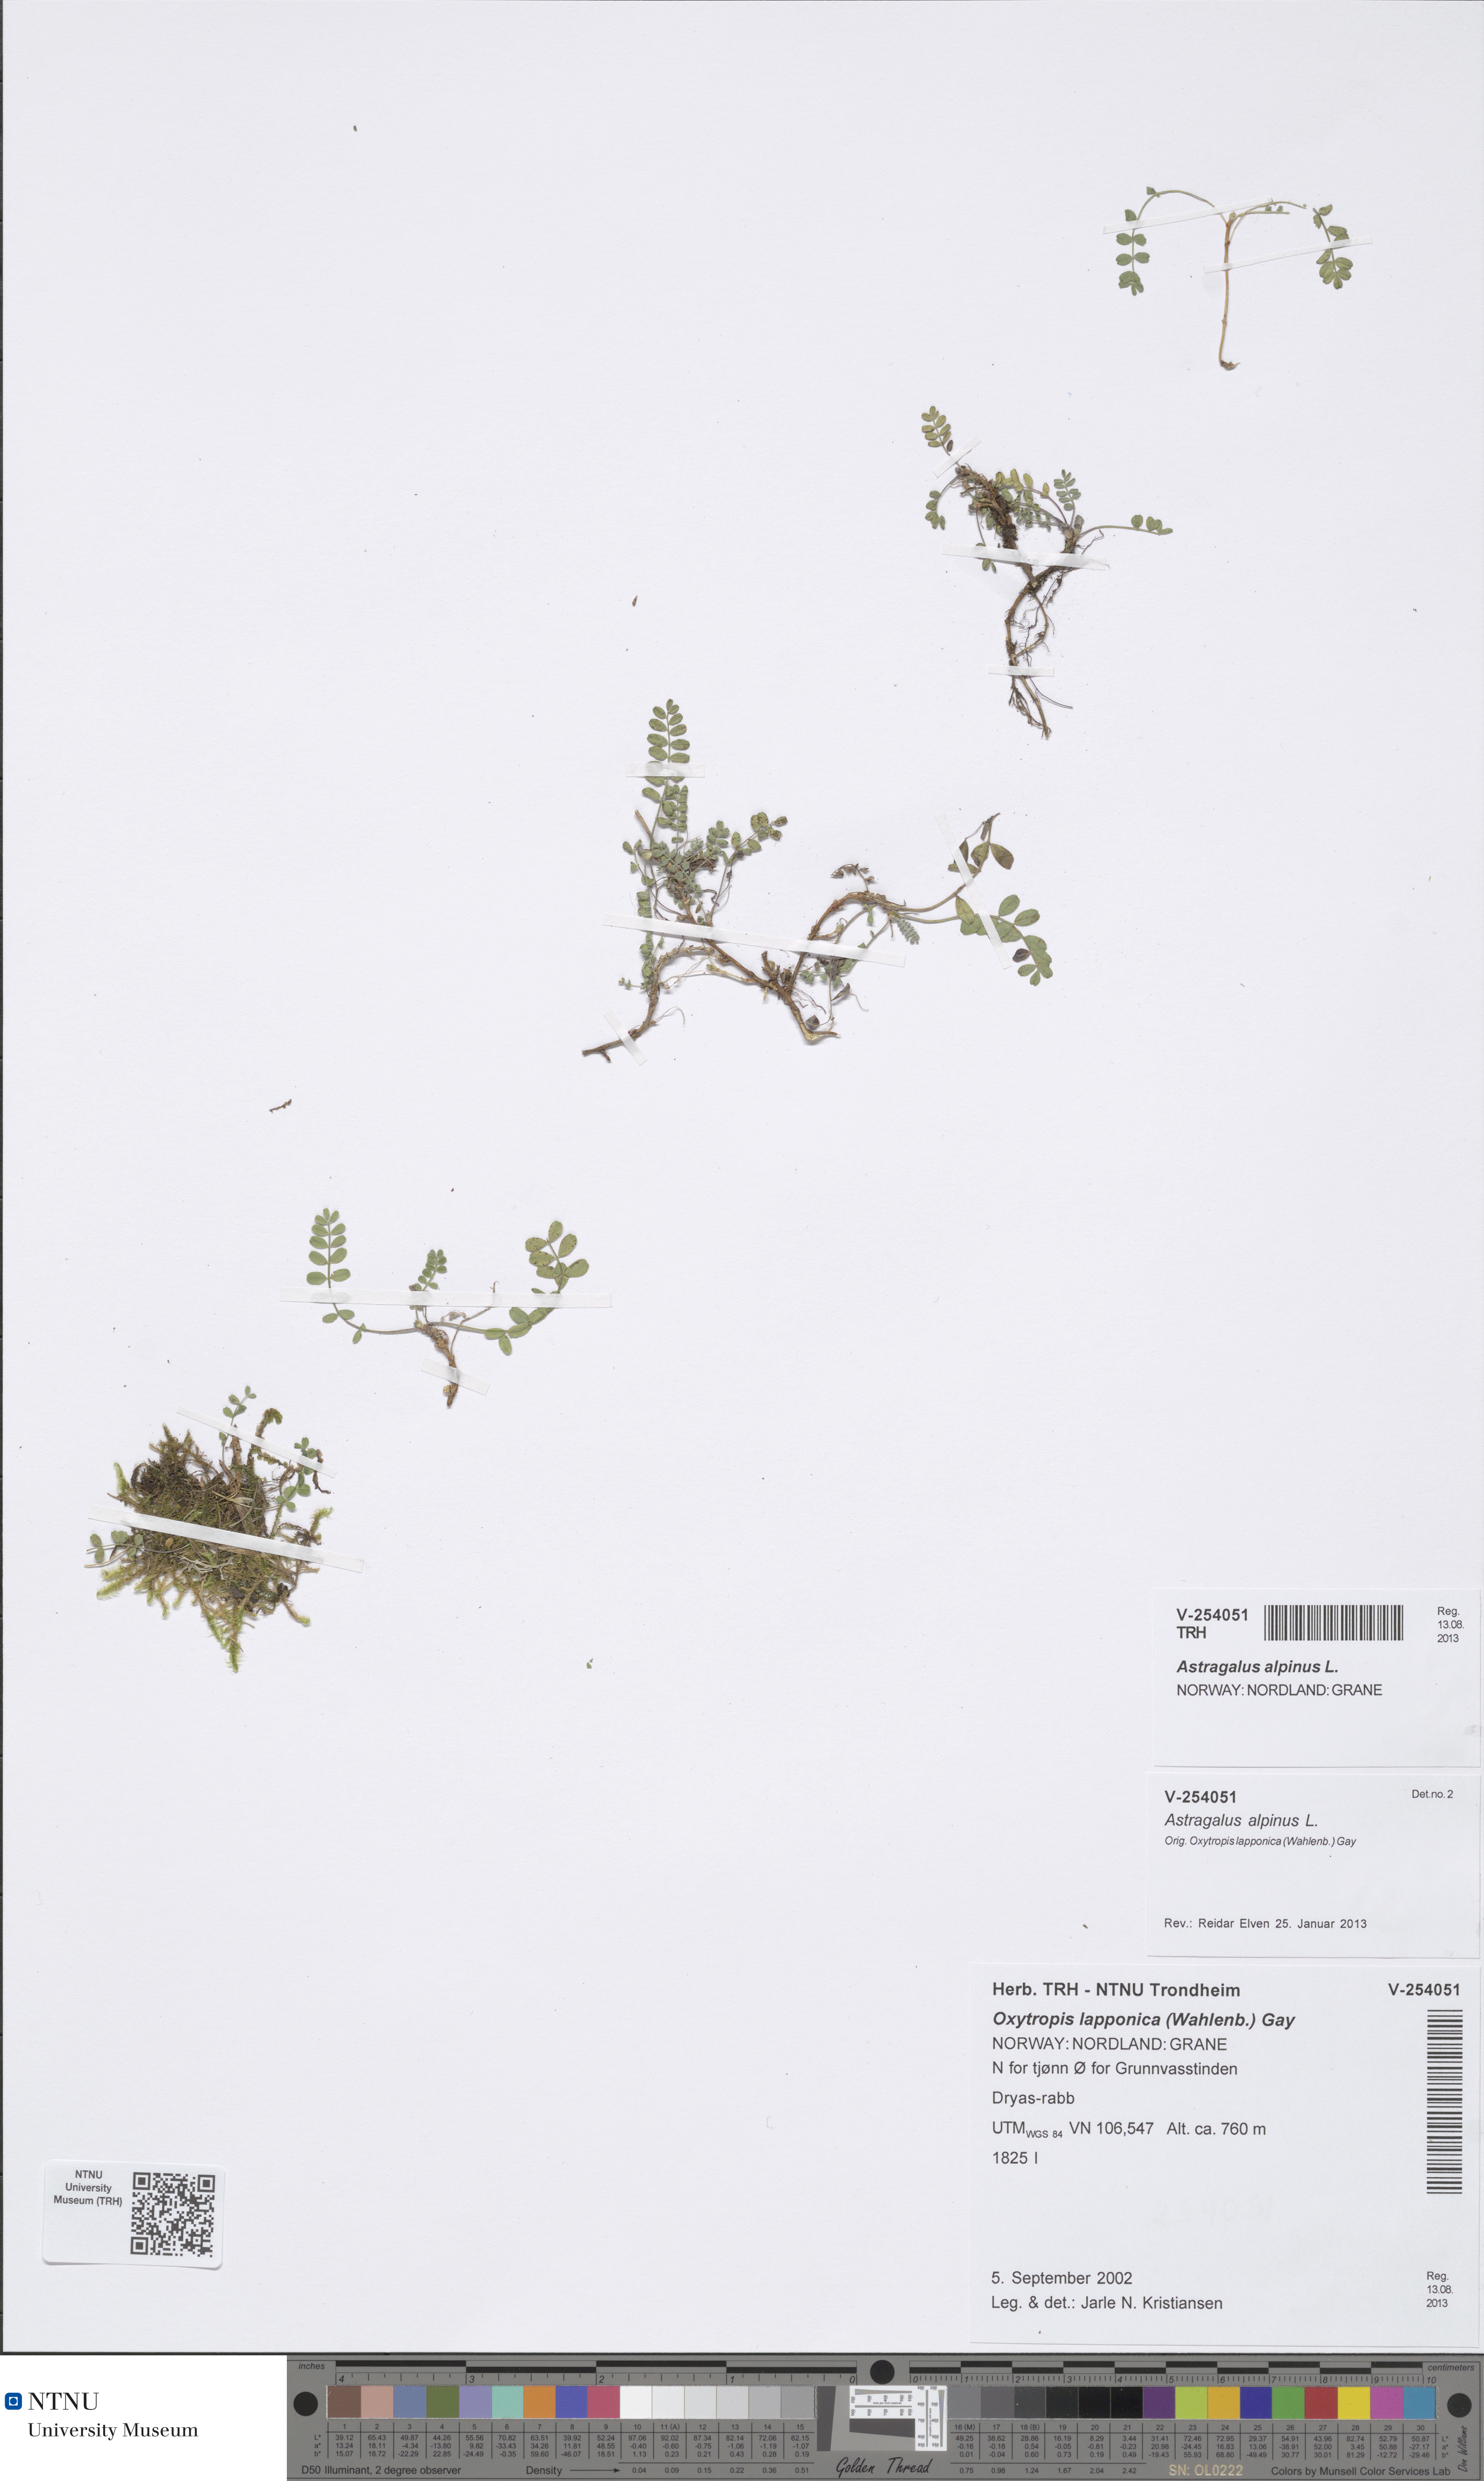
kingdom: Plantae
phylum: Tracheophyta
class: Magnoliopsida
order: Fabales
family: Fabaceae
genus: Astragalus
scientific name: Astragalus alpinus
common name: Alpine milk-vetch
